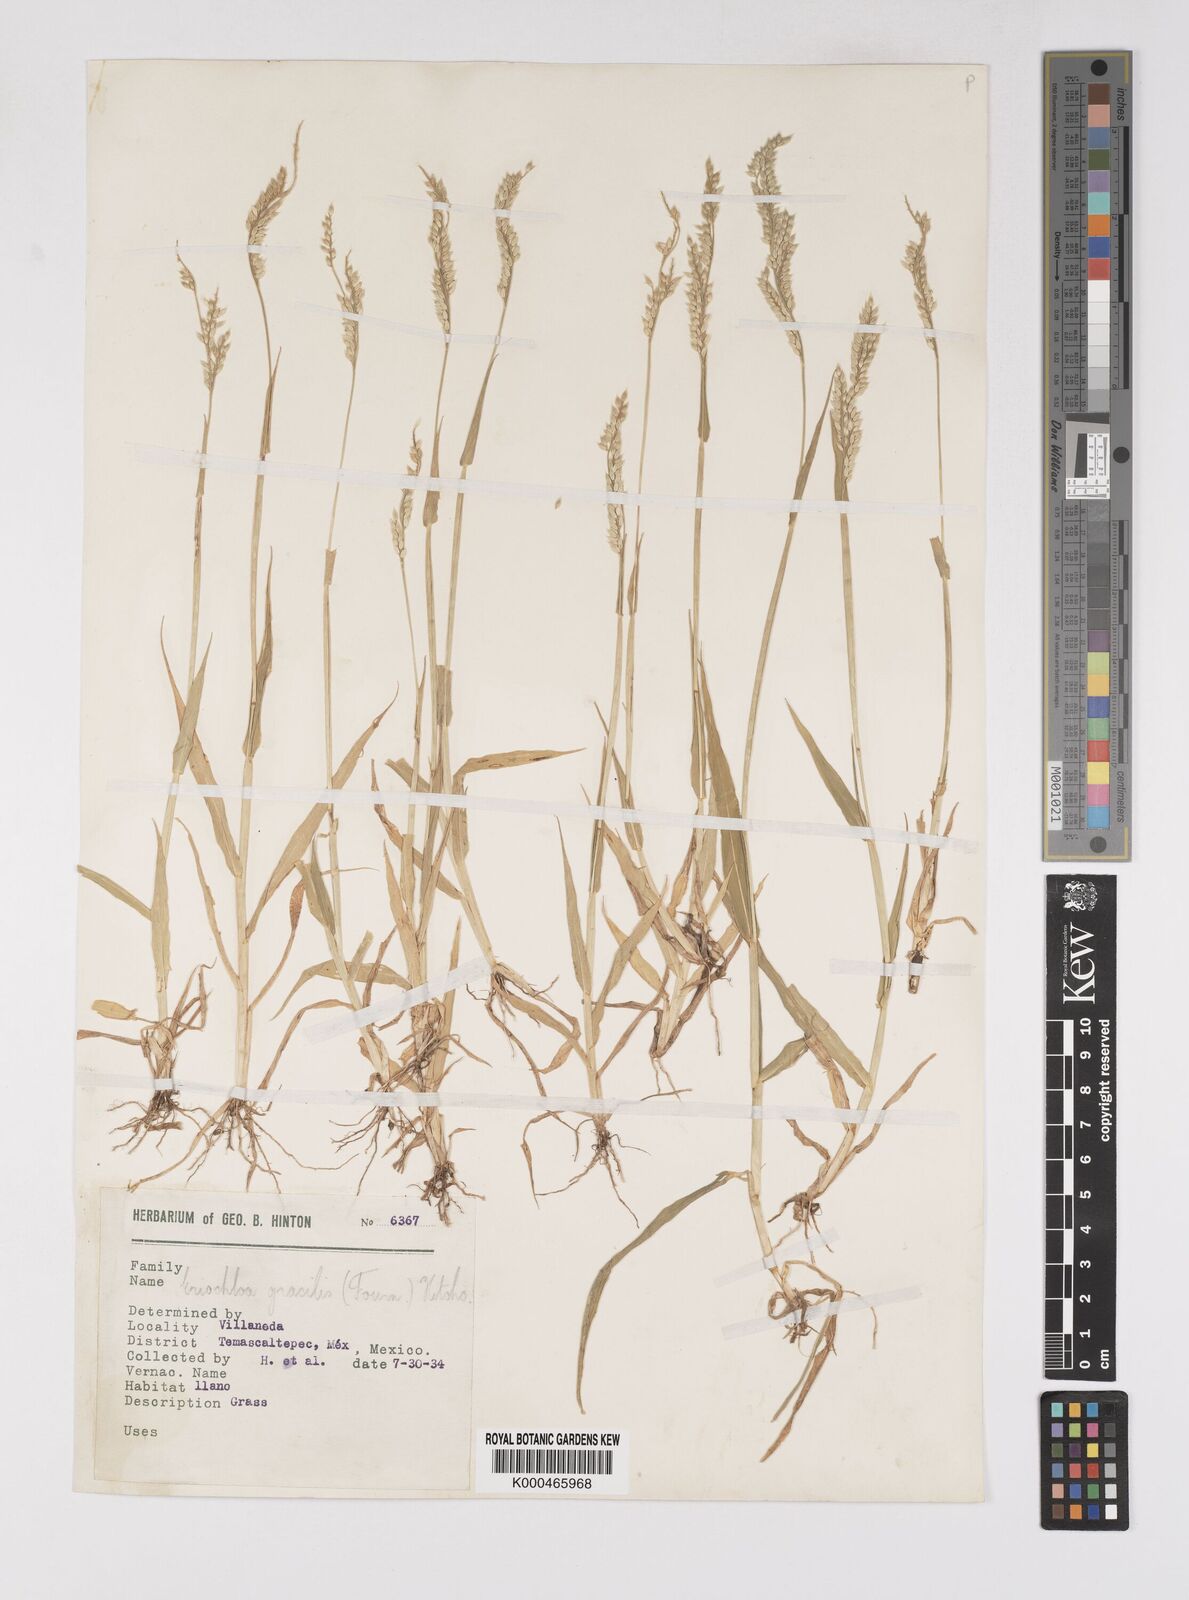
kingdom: Plantae
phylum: Tracheophyta
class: Liliopsida
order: Poales
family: Poaceae
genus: Eriochloa
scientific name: Eriochloa acuminata
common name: Southwestern cup grass
